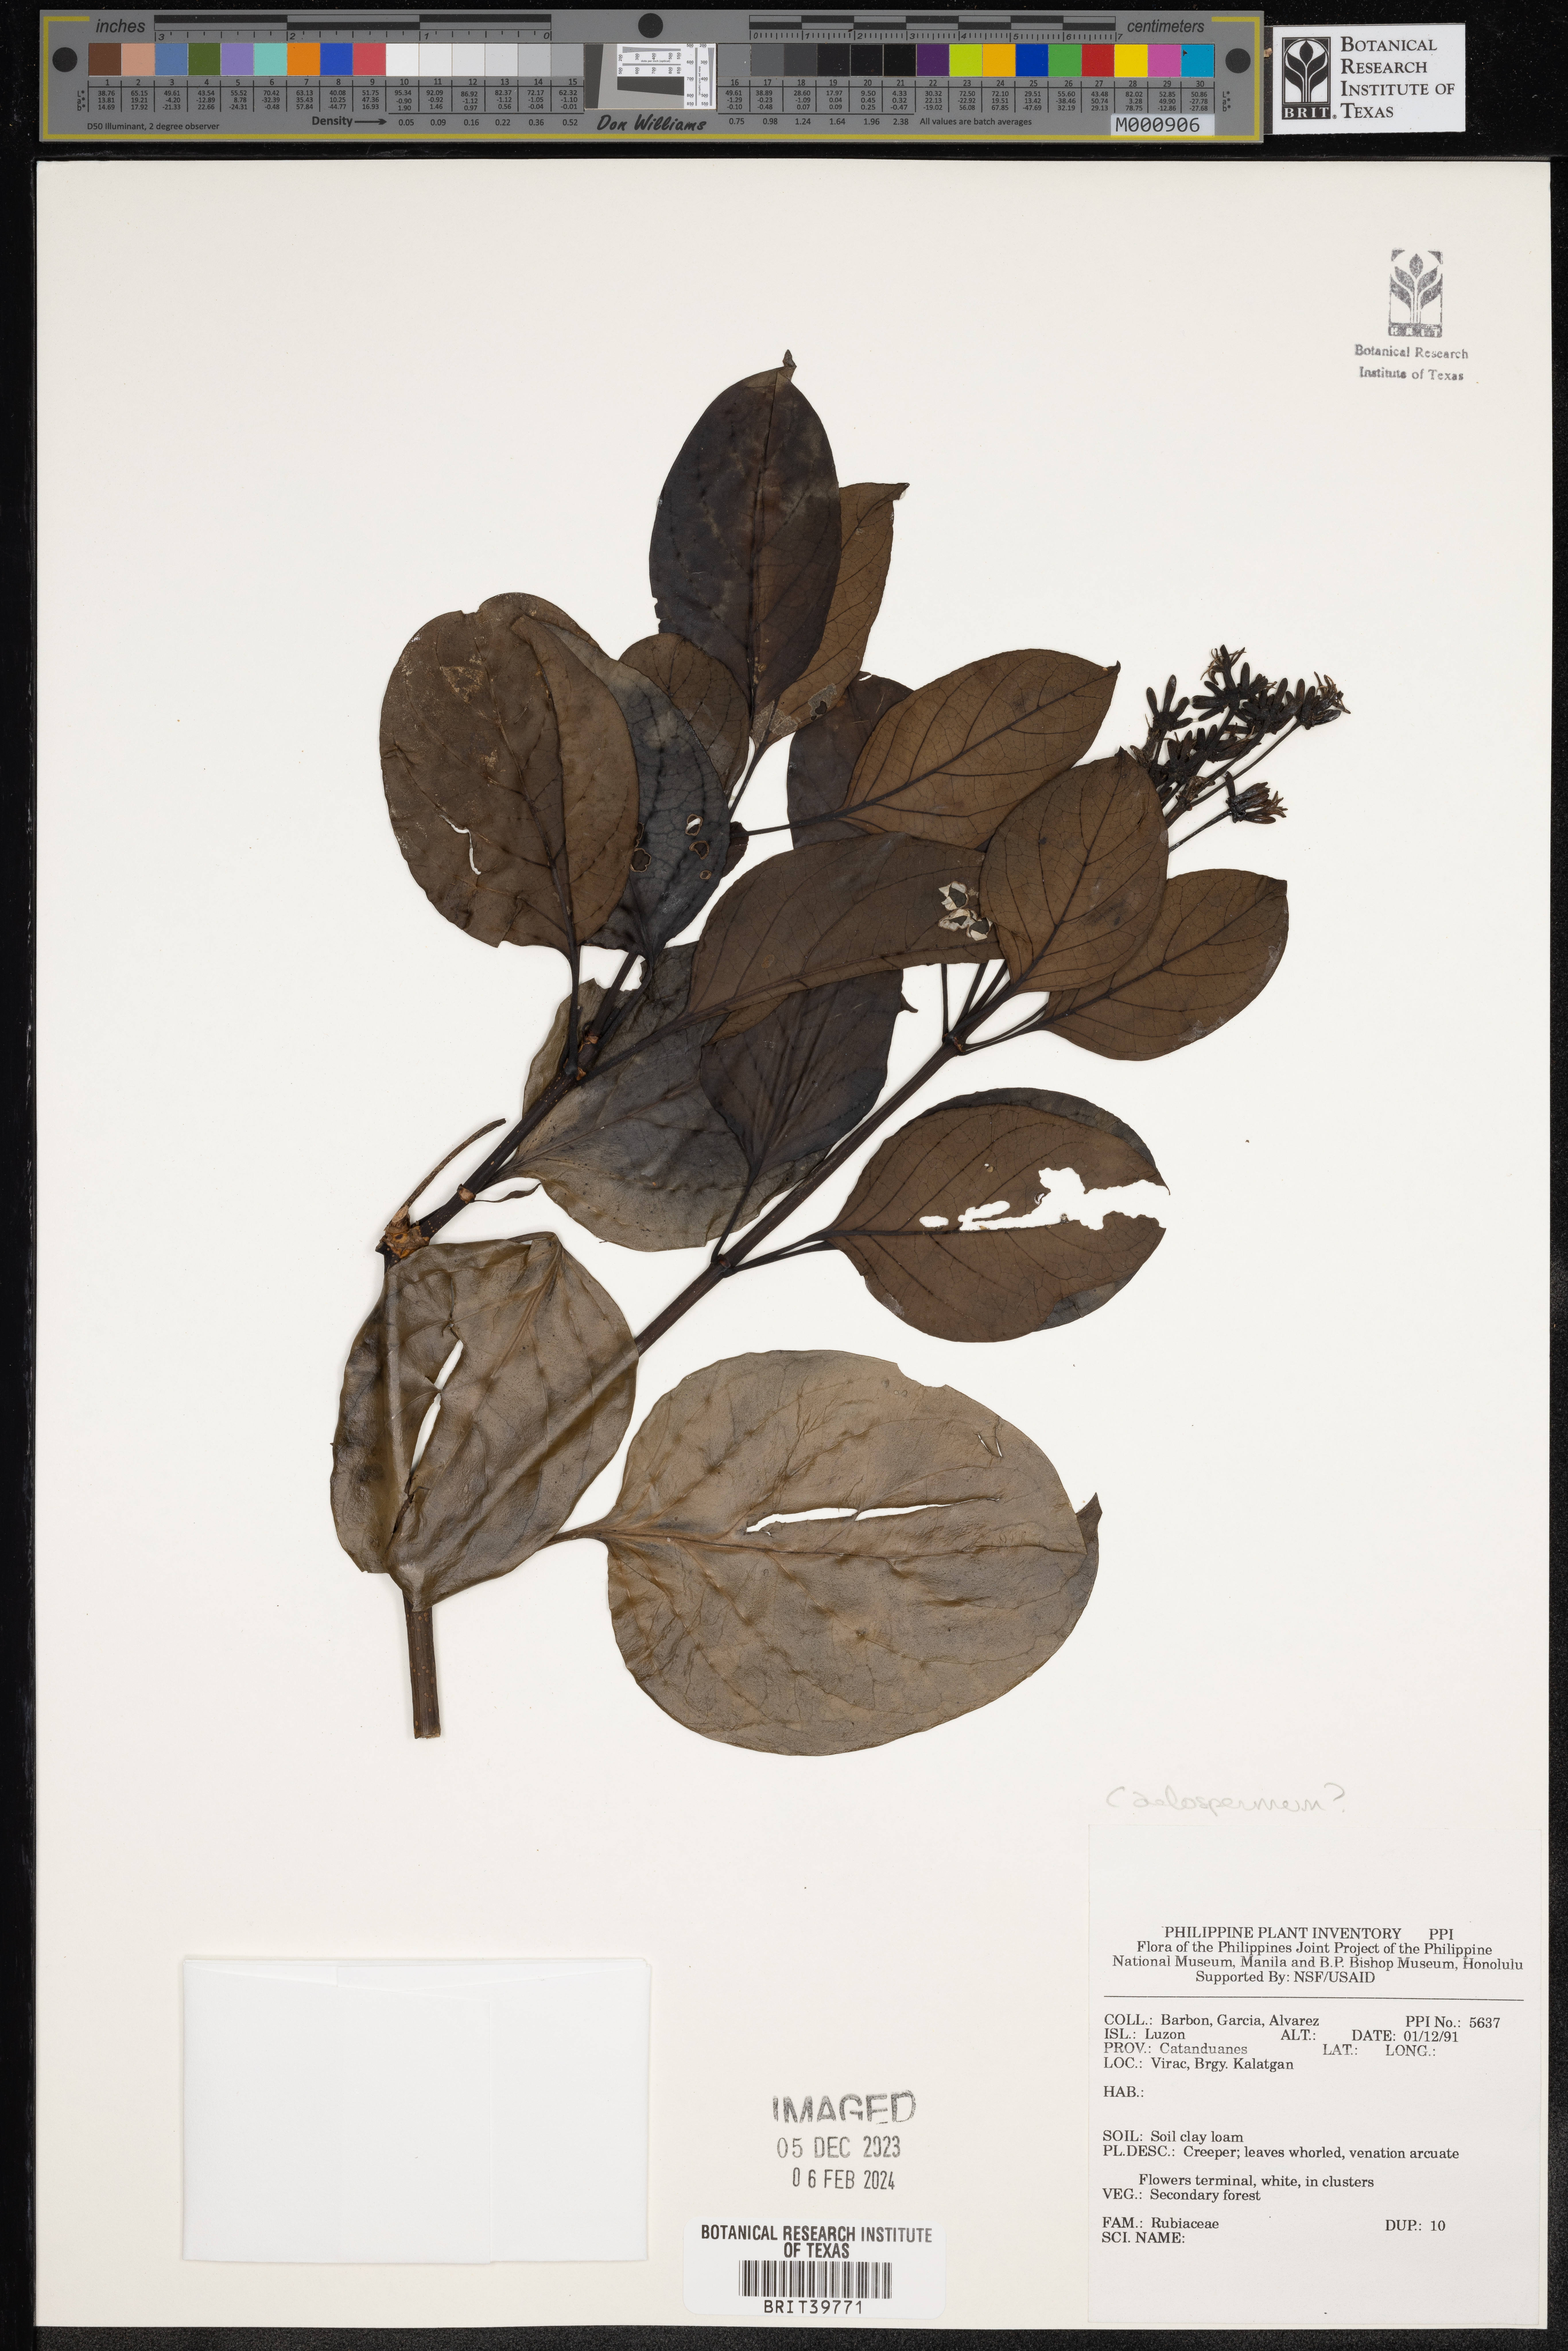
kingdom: Plantae
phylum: Tracheophyta
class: Magnoliopsida
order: Gentianales
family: Rubiaceae
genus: Caelospermum
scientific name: Caelospermum
